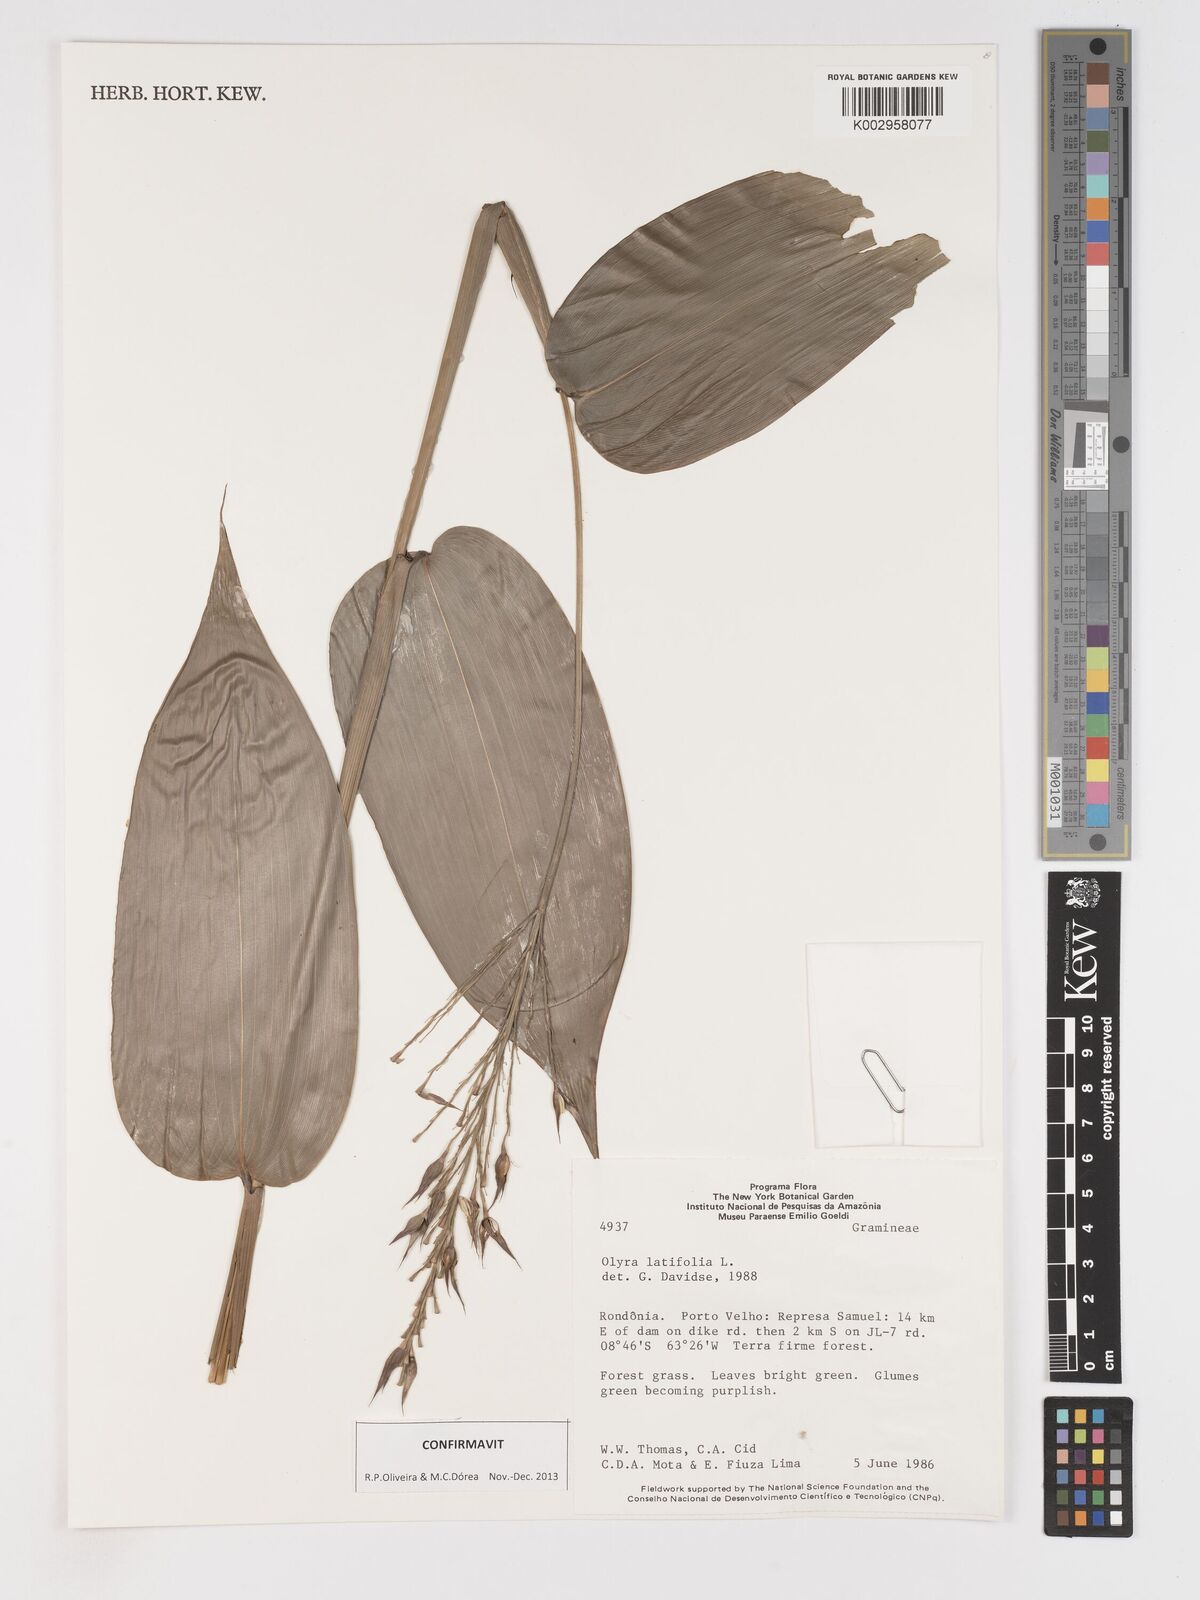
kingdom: Plantae
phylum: Tracheophyta
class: Liliopsida
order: Poales
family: Poaceae
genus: Olyra
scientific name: Olyra latifolia
